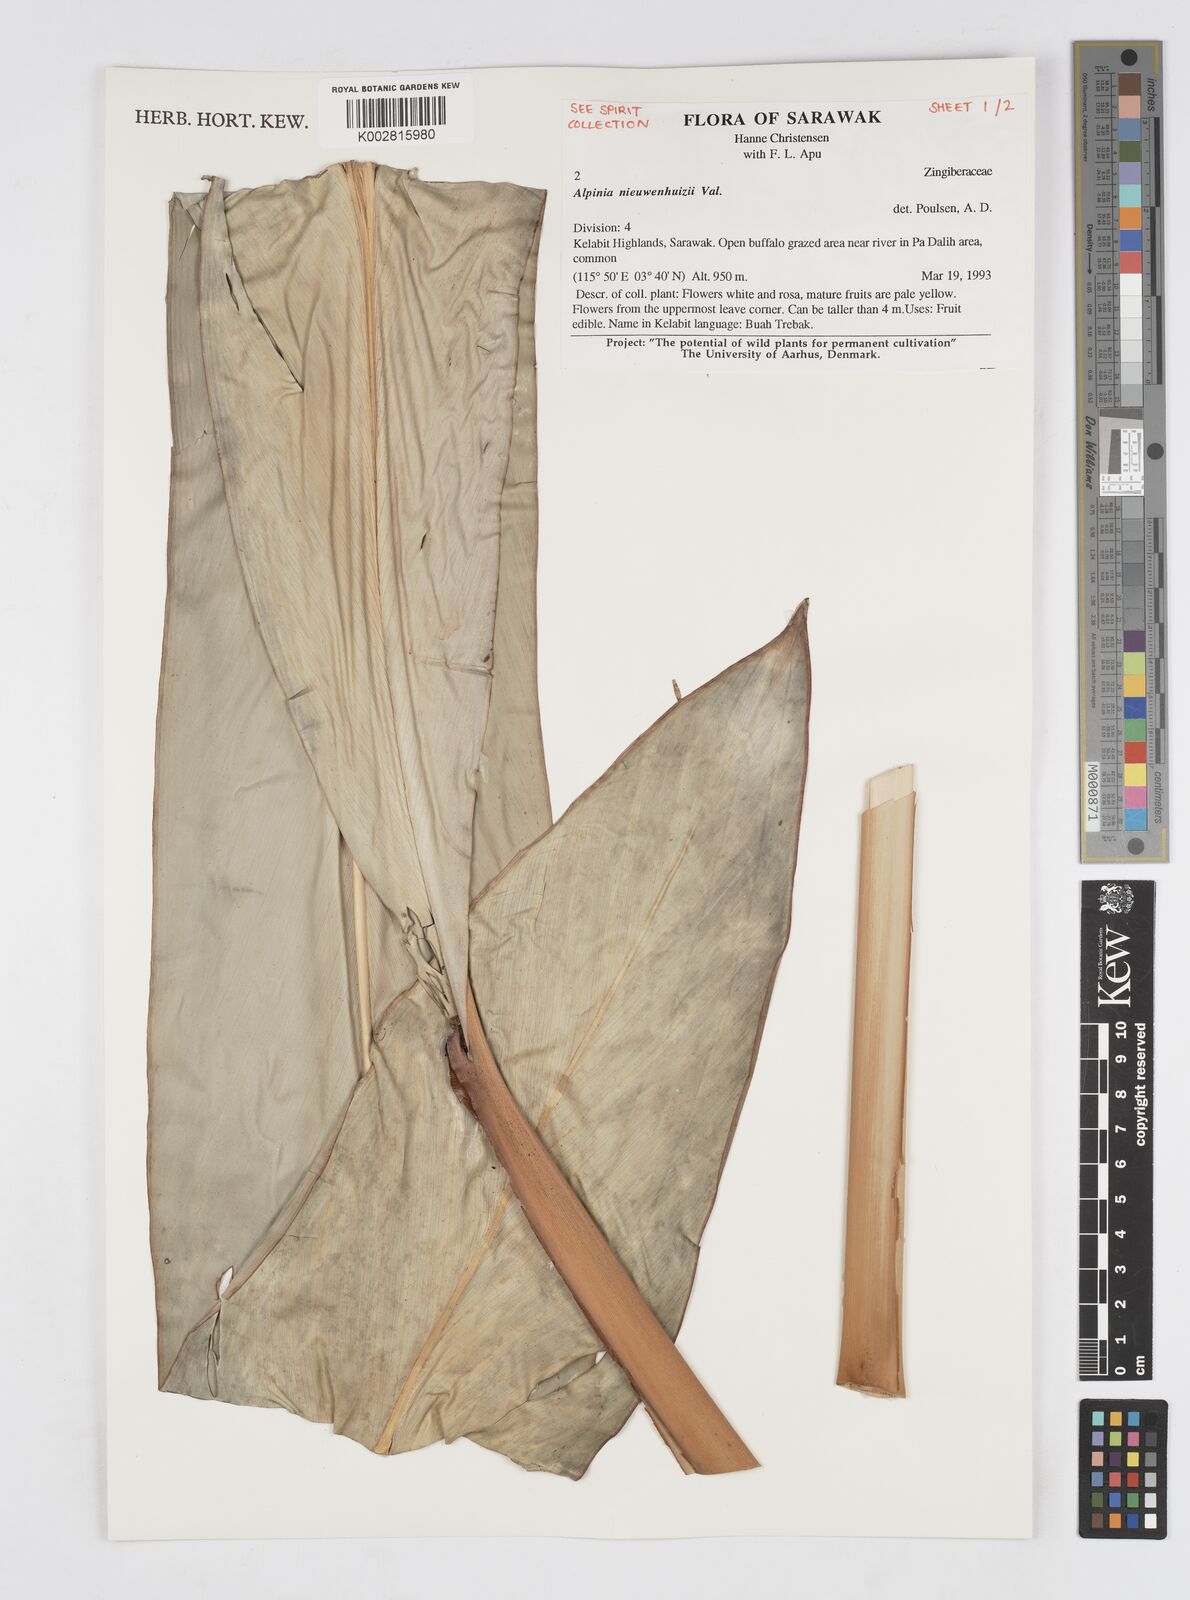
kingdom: Plantae
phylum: Tracheophyta
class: Liliopsida
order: Zingiberales
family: Zingiberaceae
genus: Alpinia
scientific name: Alpinia nieuwenhuizii
